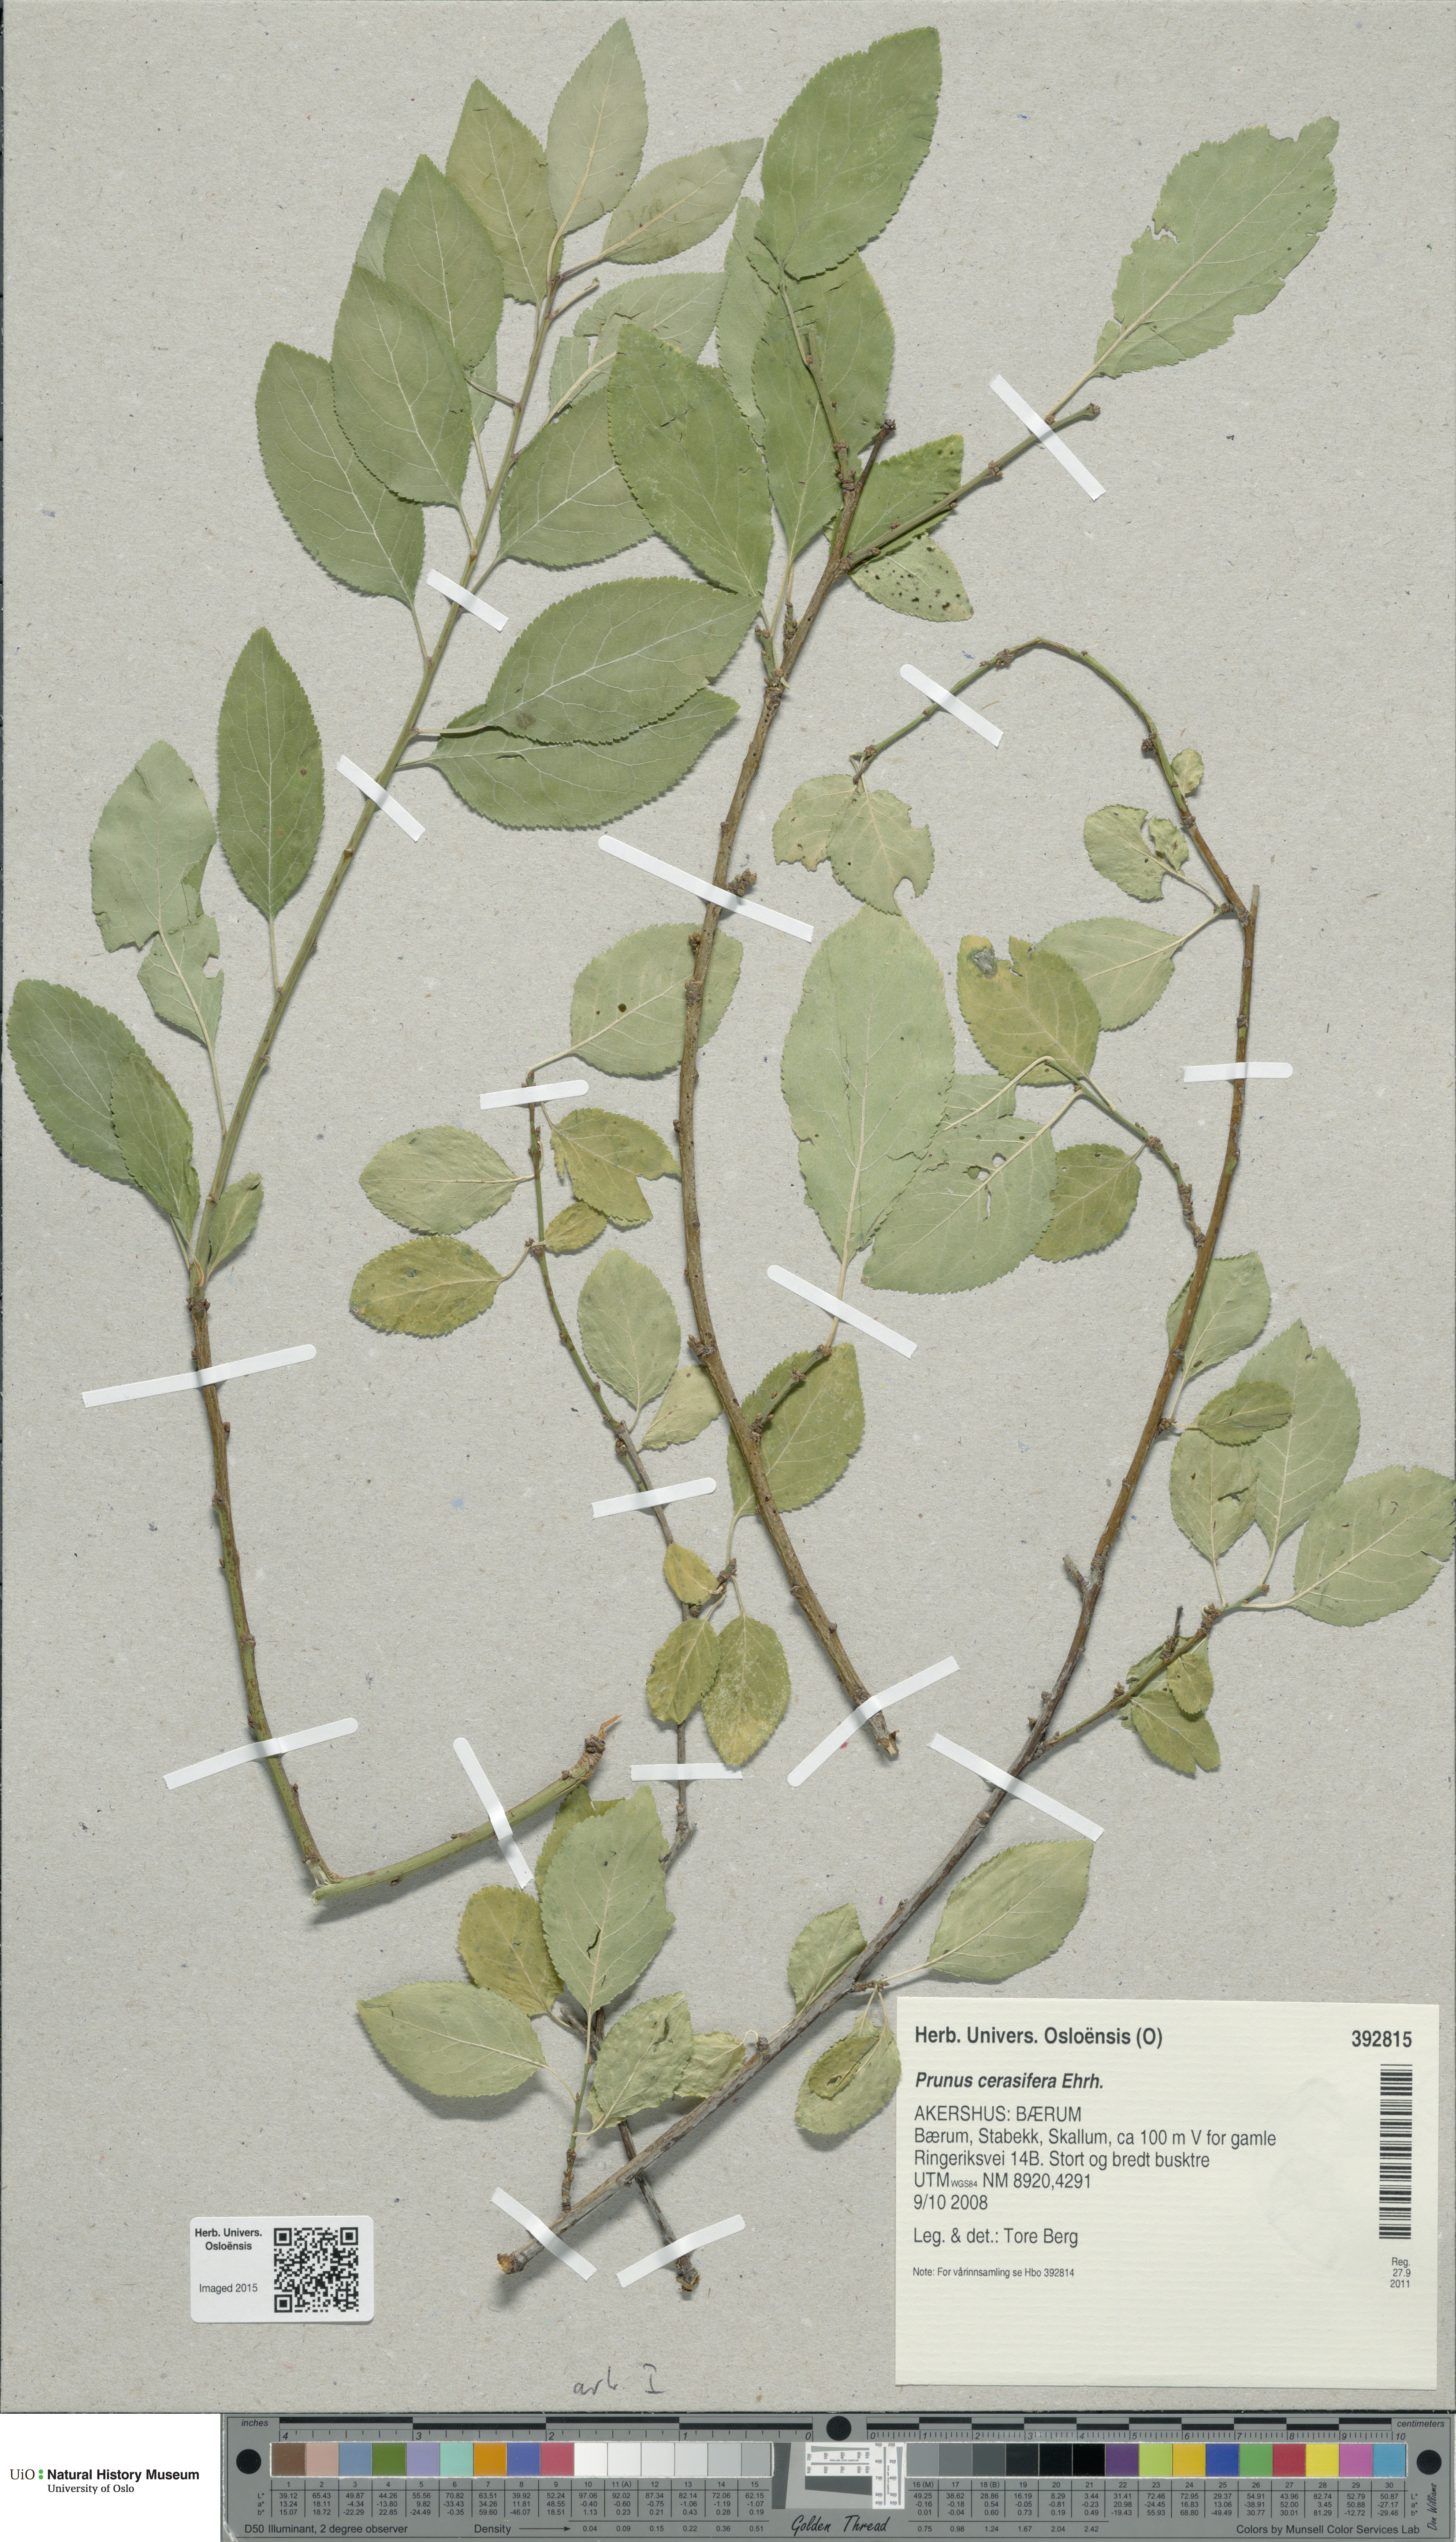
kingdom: Plantae
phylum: Tracheophyta
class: Magnoliopsida
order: Rosales
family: Rosaceae
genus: Prunus
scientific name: Prunus cerasifera
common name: Cherry plum
